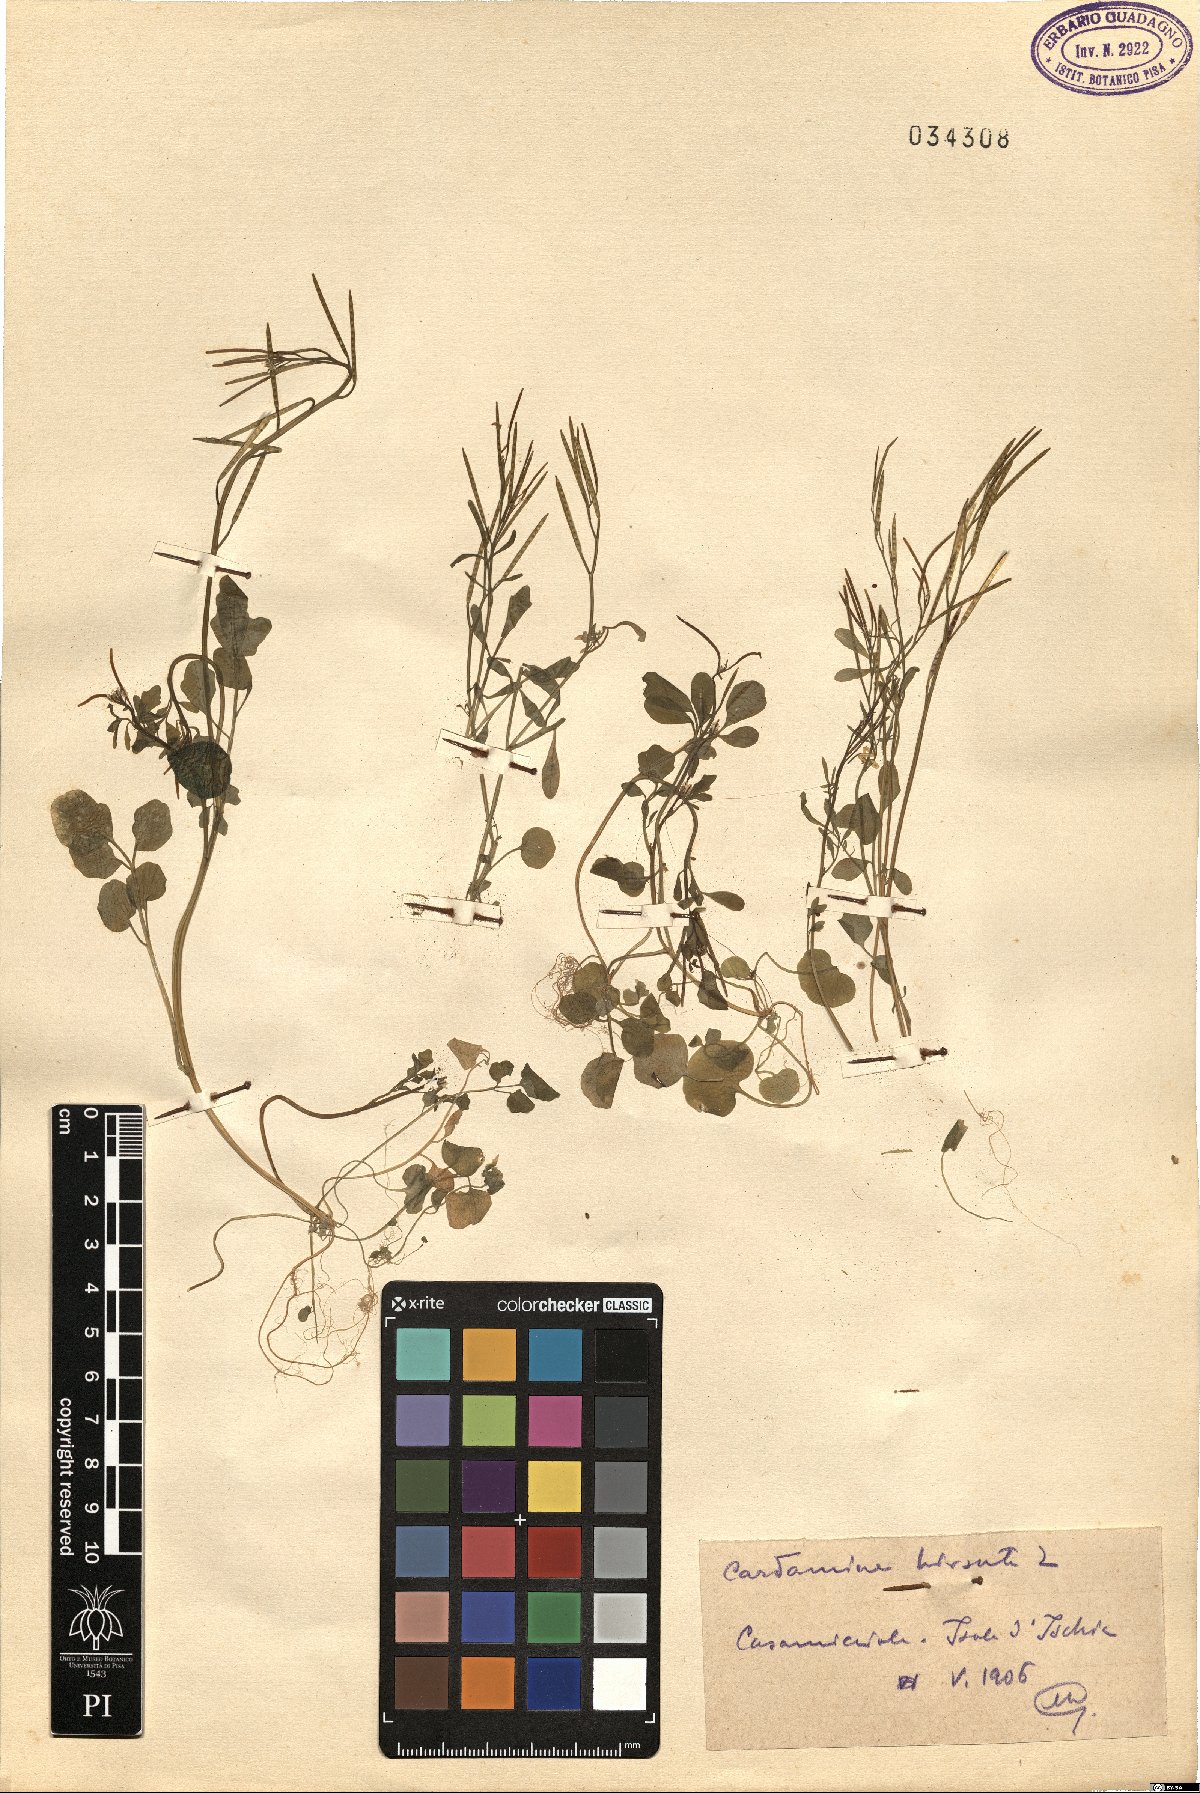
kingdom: Plantae
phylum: Tracheophyta
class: Magnoliopsida
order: Brassicales
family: Brassicaceae
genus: Cardamine
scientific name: Cardamine hirsuta
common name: Hairy bittercress
